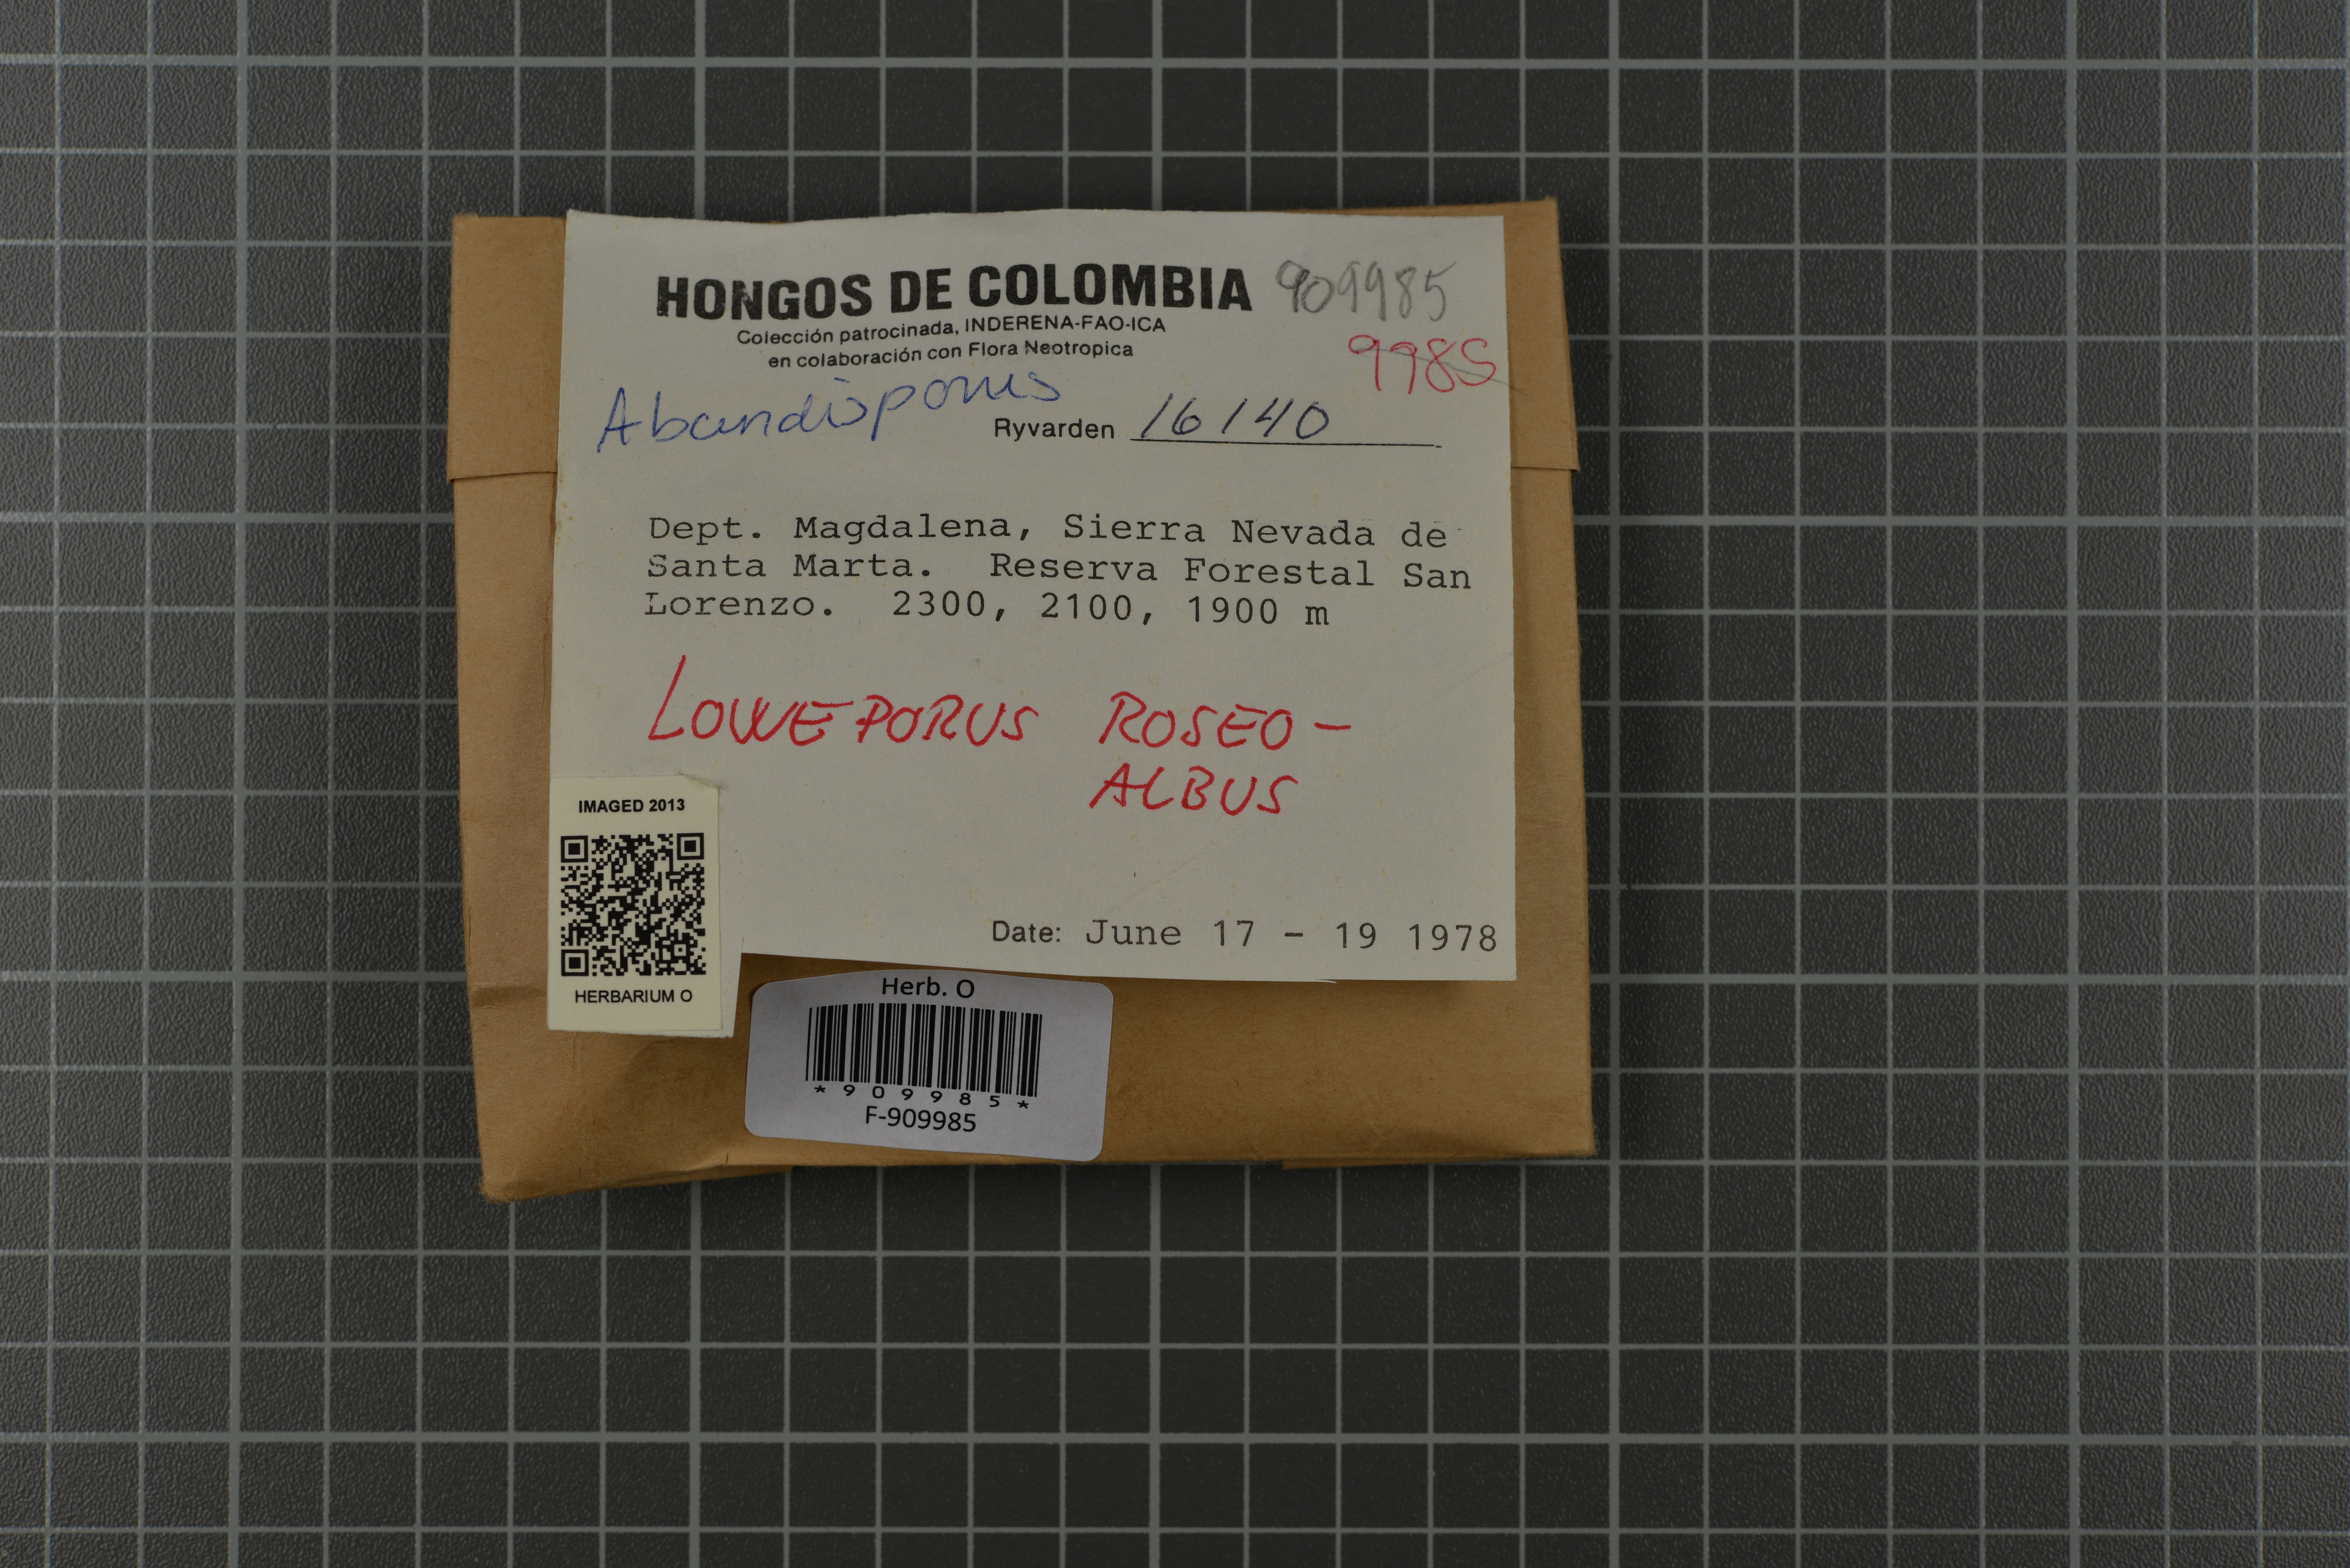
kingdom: Fungi
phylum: Basidiomycota
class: Agaricomycetes
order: Polyporales
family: Polyporaceae
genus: Abundisporus
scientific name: Abundisporus roseoalbus
